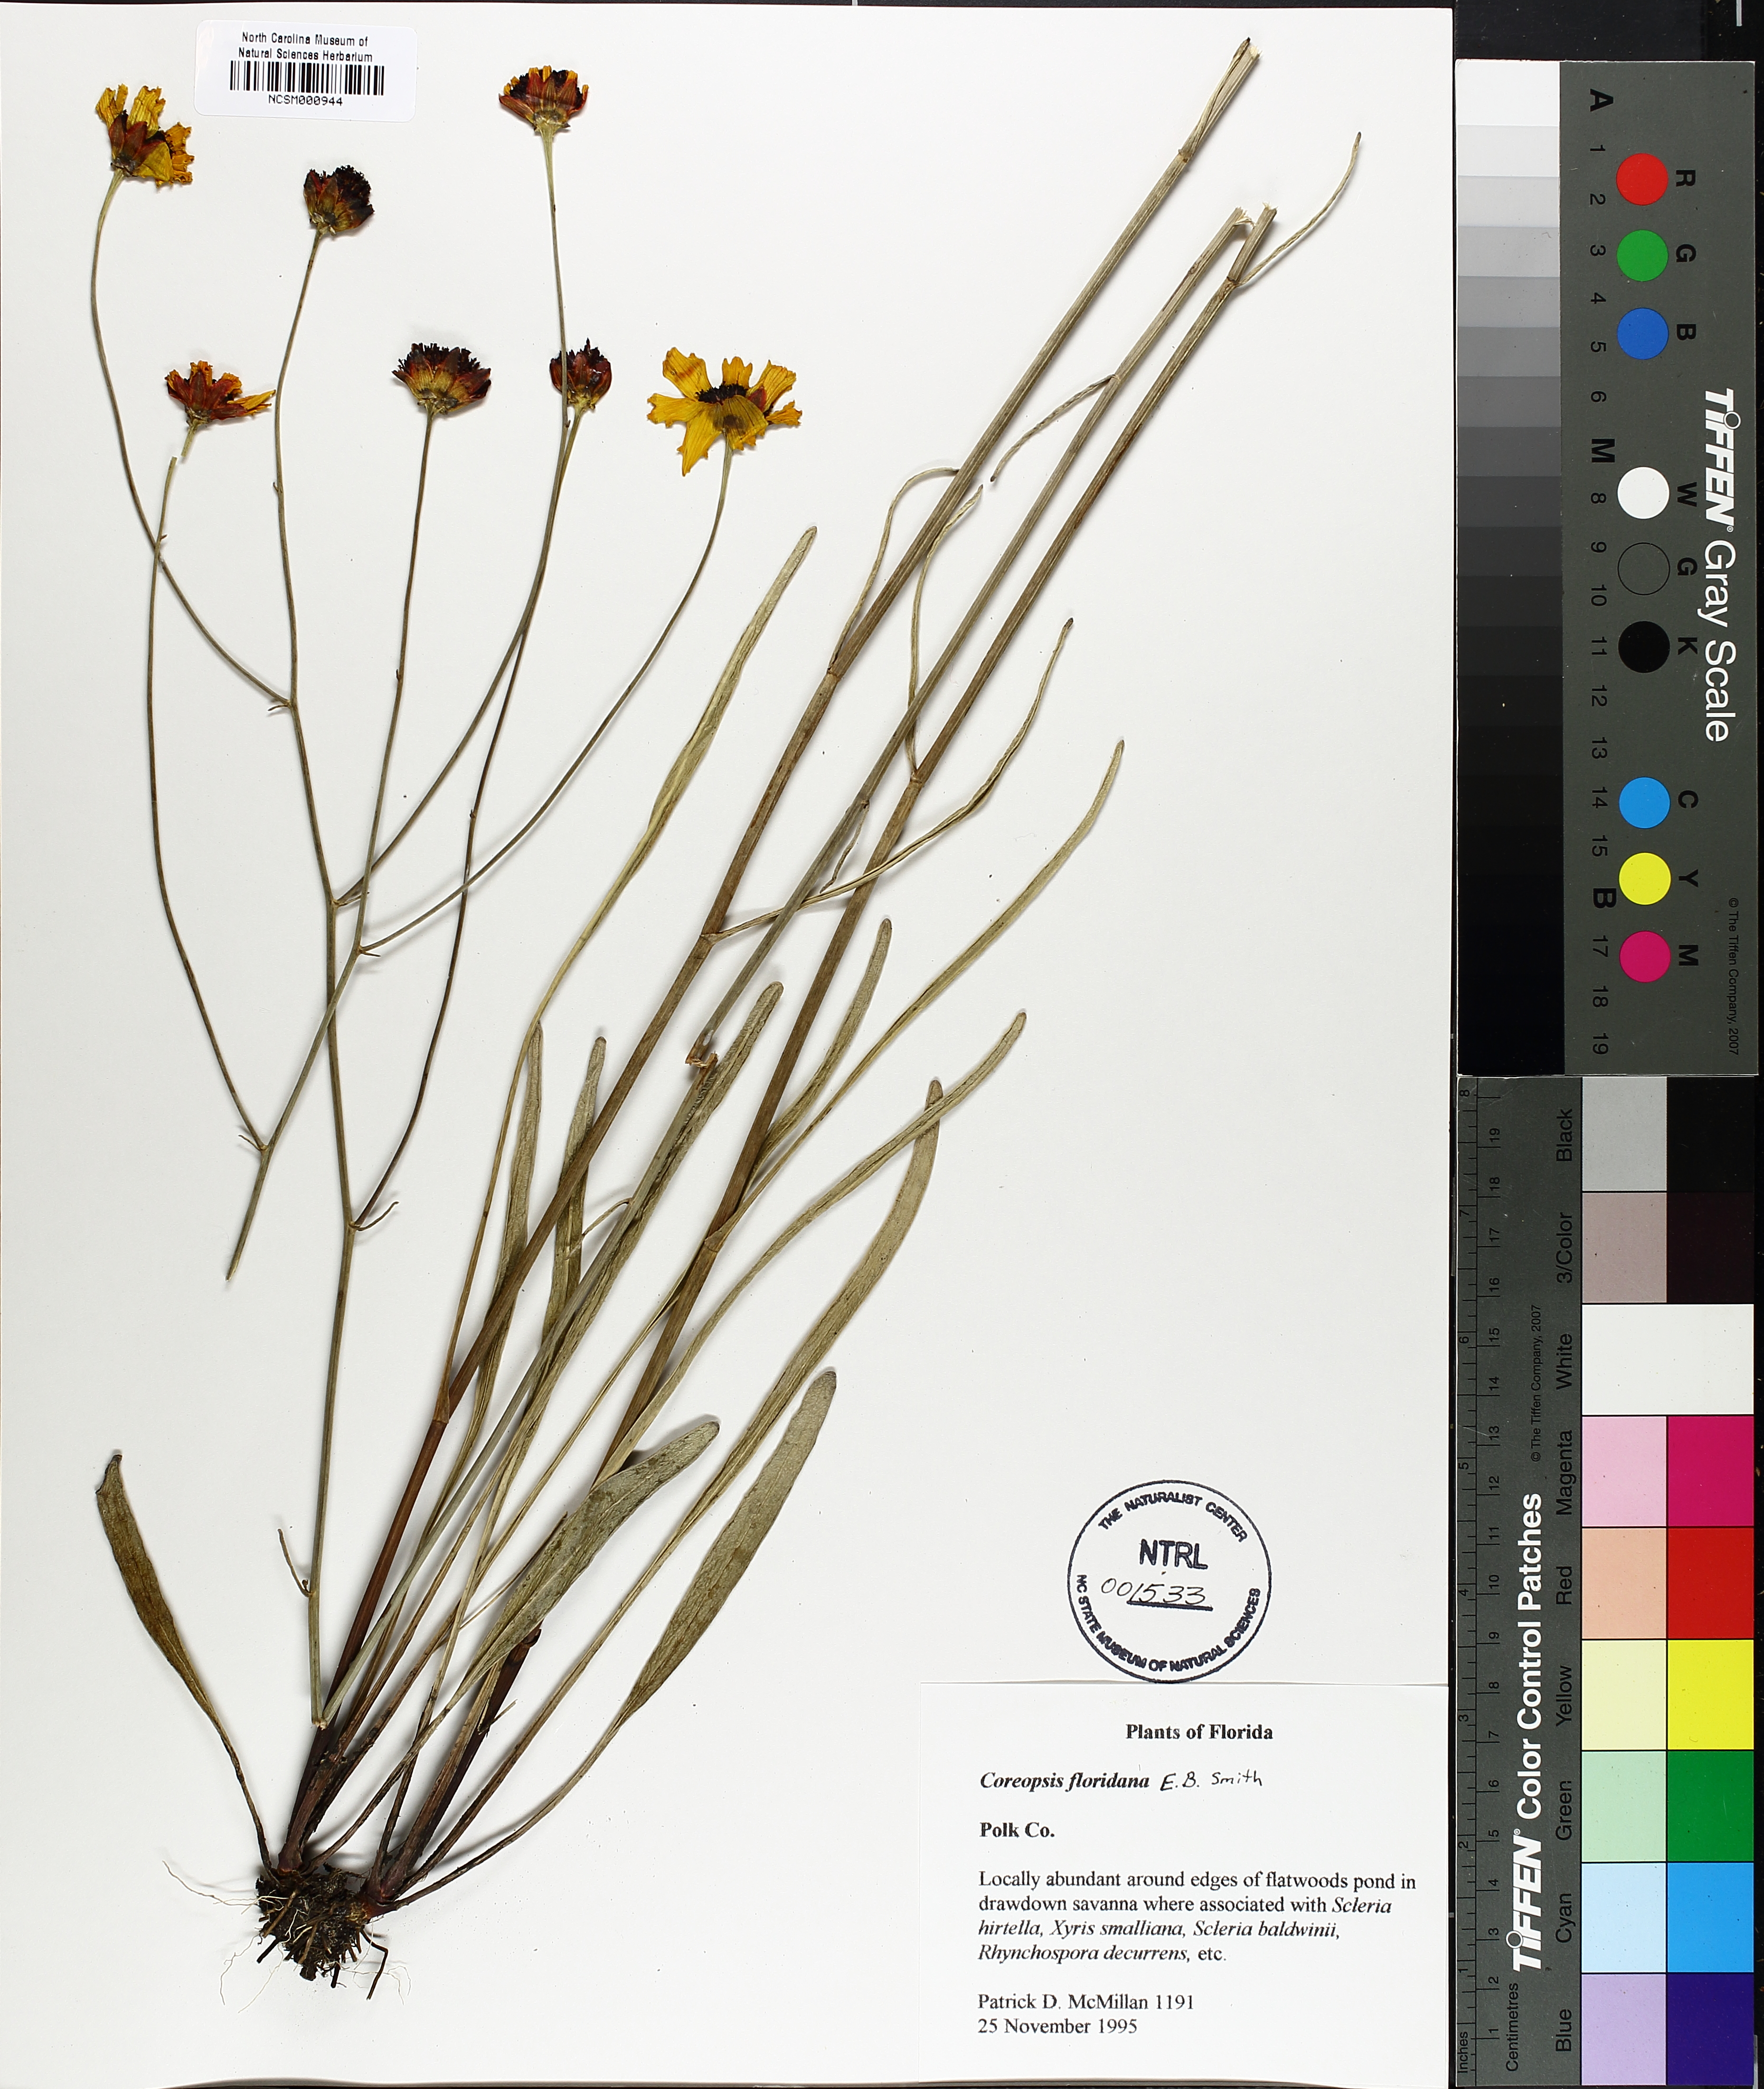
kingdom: Plantae
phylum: Tracheophyta
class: Magnoliopsida
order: Asterales
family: Asteraceae
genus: Coreopsis
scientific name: Coreopsis gladiata
